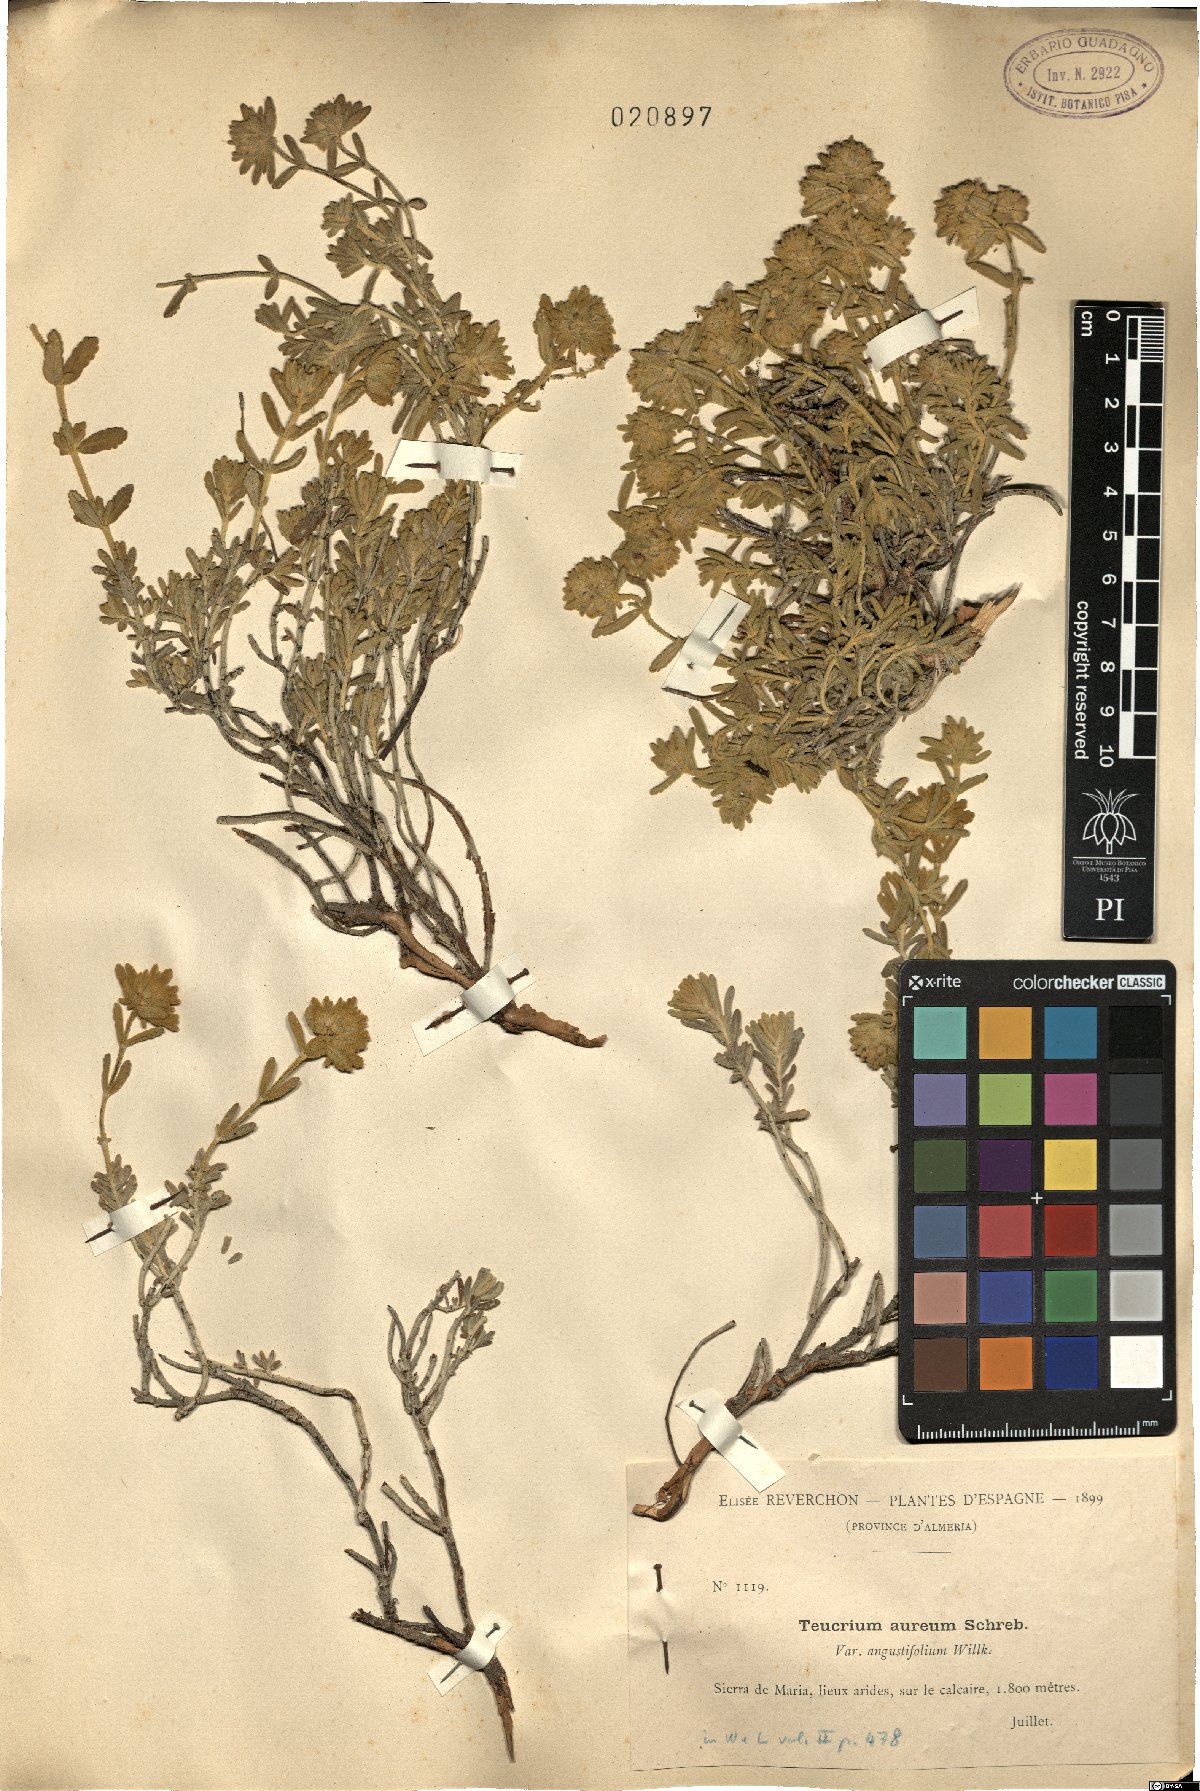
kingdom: Plantae
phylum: Tracheophyta
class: Magnoliopsida
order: Lamiales
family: Lamiaceae
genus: Teucrium
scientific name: Teucrium aureum
